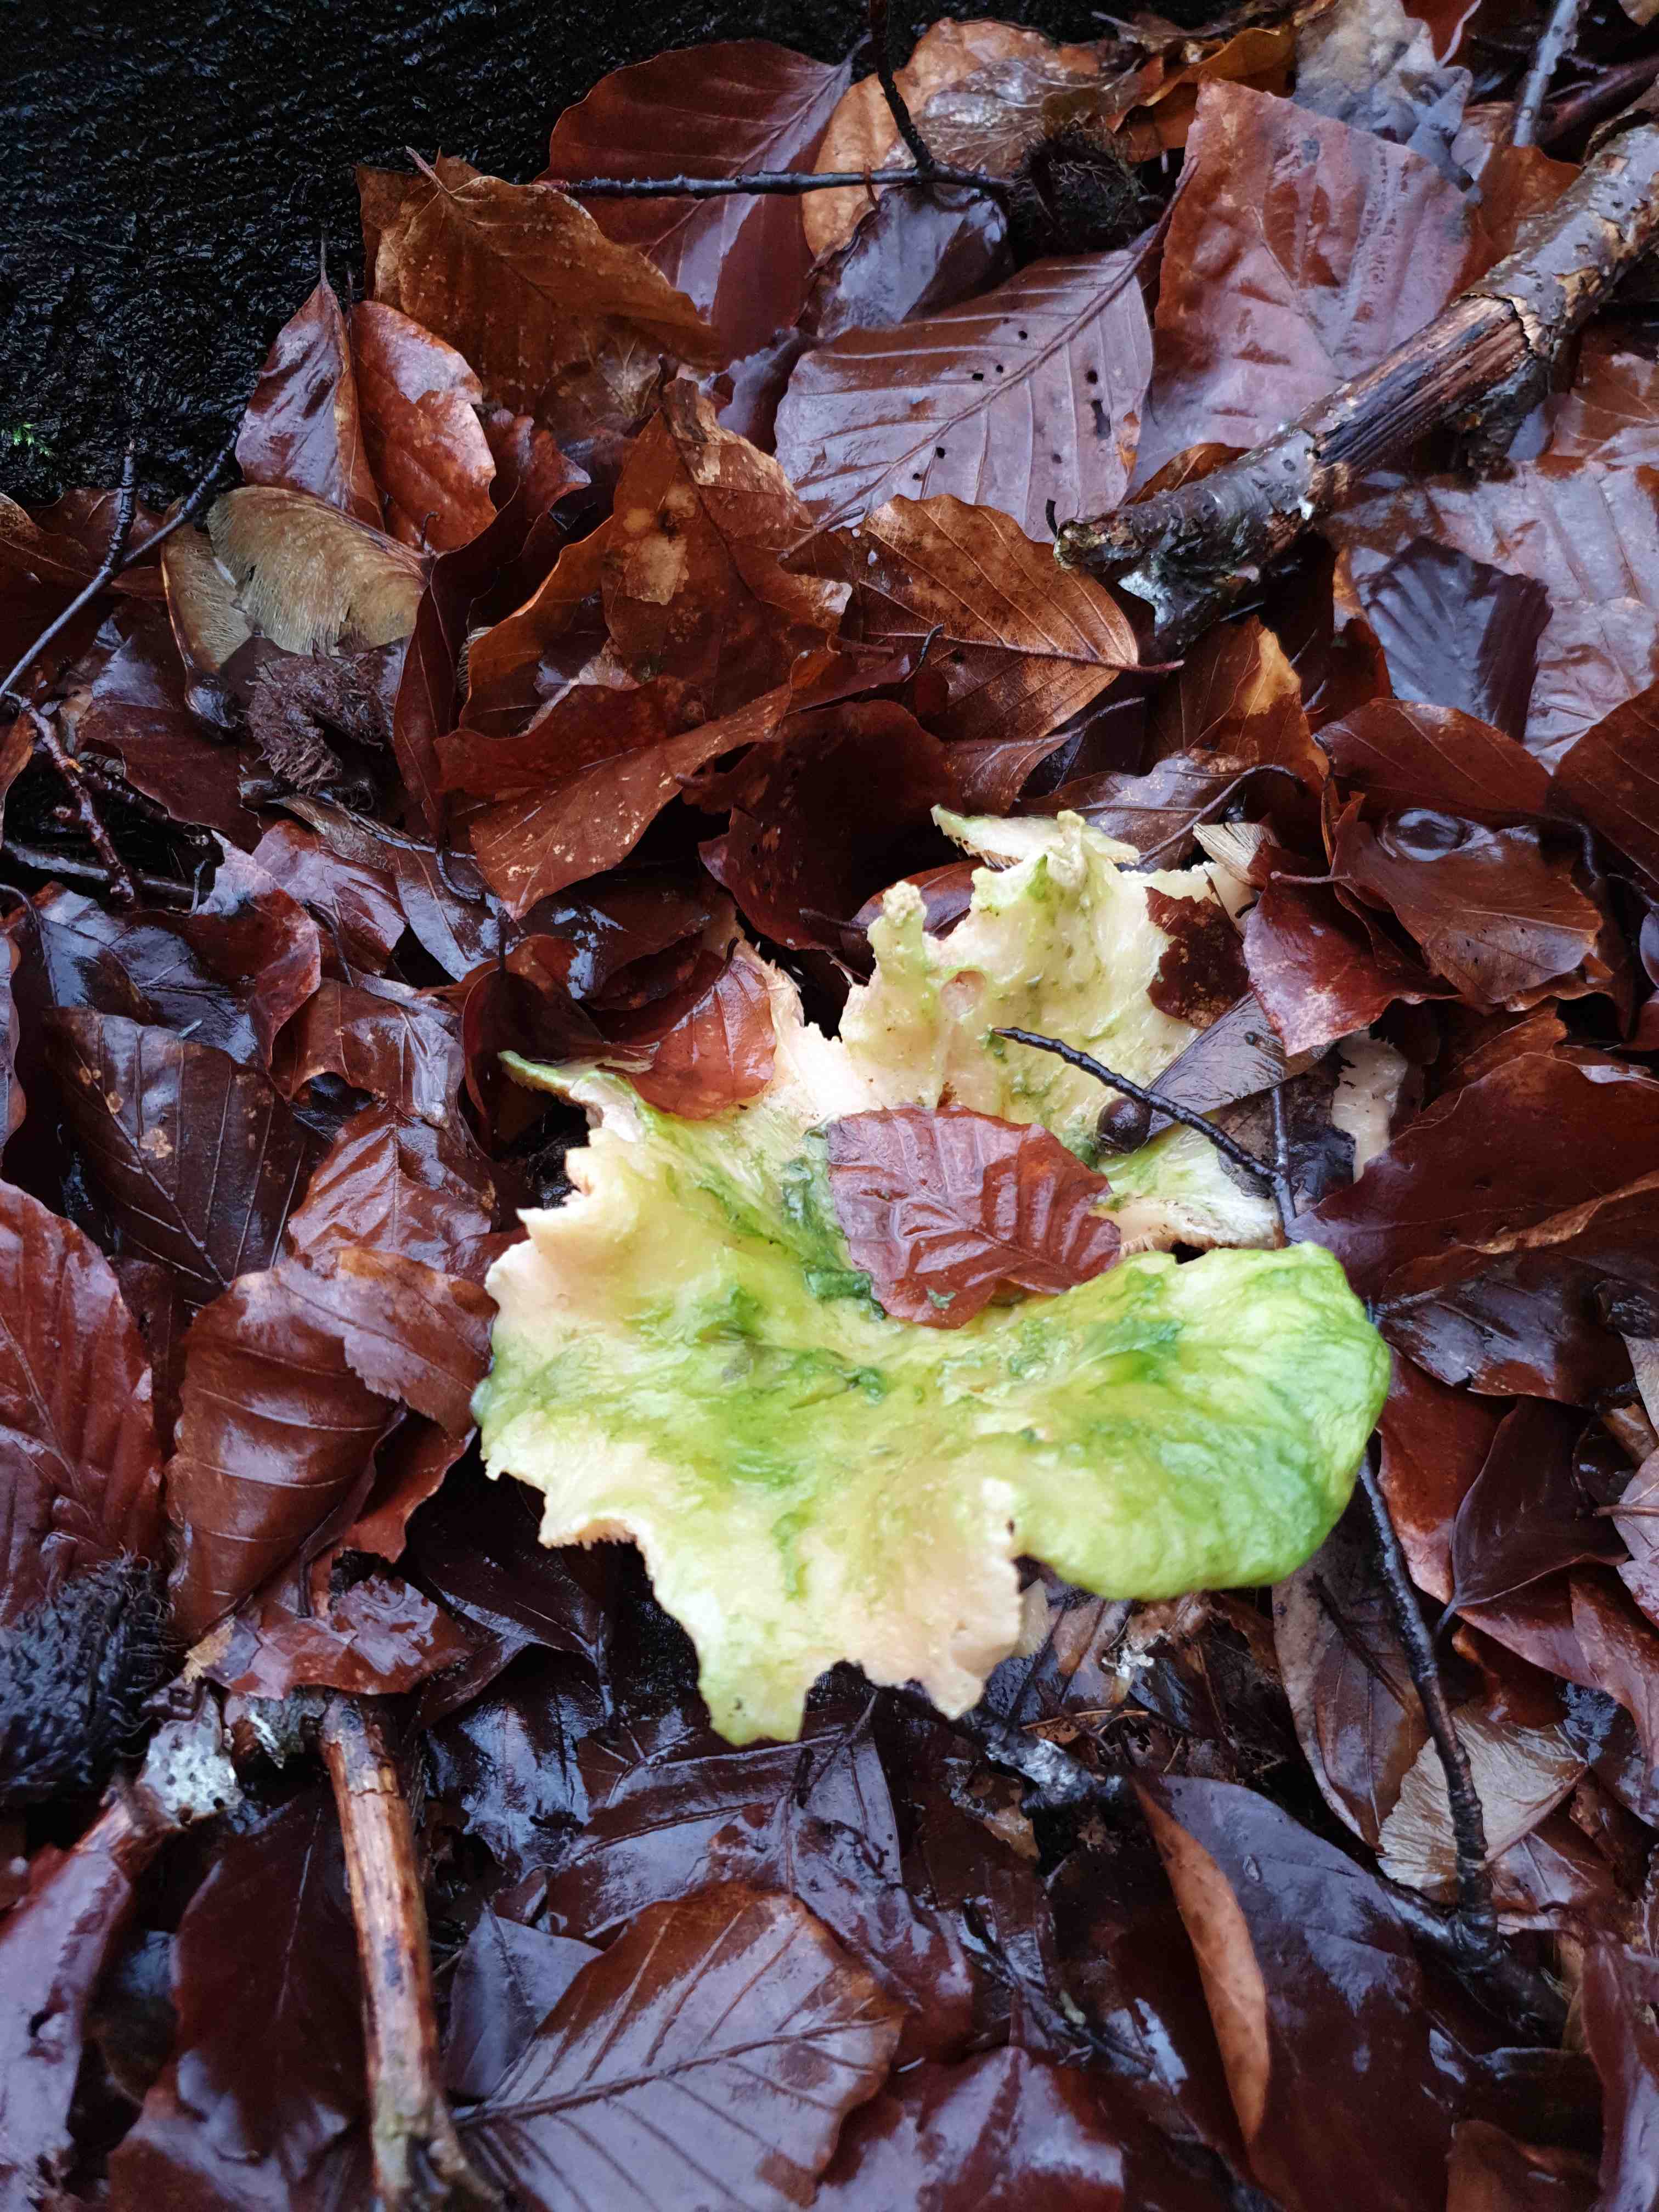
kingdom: Fungi
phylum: Basidiomycota
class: Agaricomycetes
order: Cantharellales
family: Hydnaceae
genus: Hydnum
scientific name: Hydnum
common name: pigsvamp
